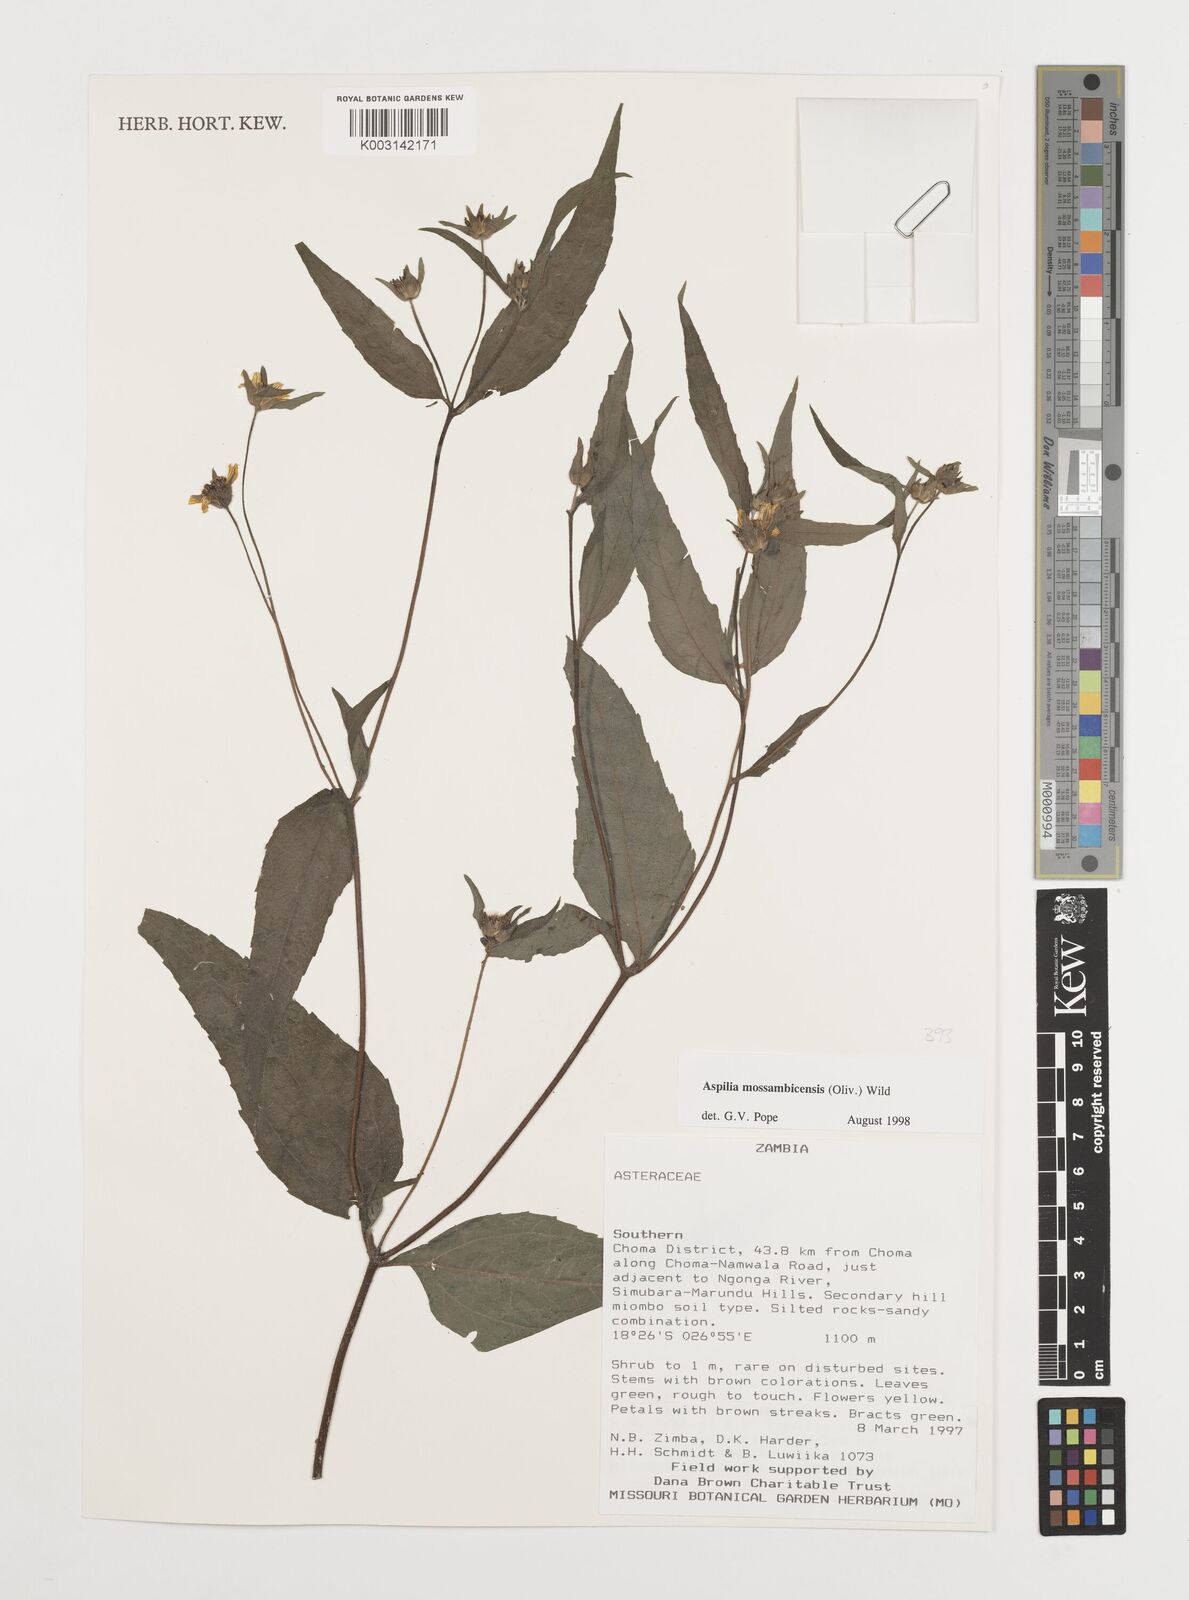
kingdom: Plantae
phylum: Tracheophyta
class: Magnoliopsida
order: Asterales
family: Asteraceae
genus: Aspilia
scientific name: Aspilia mossambicensis
